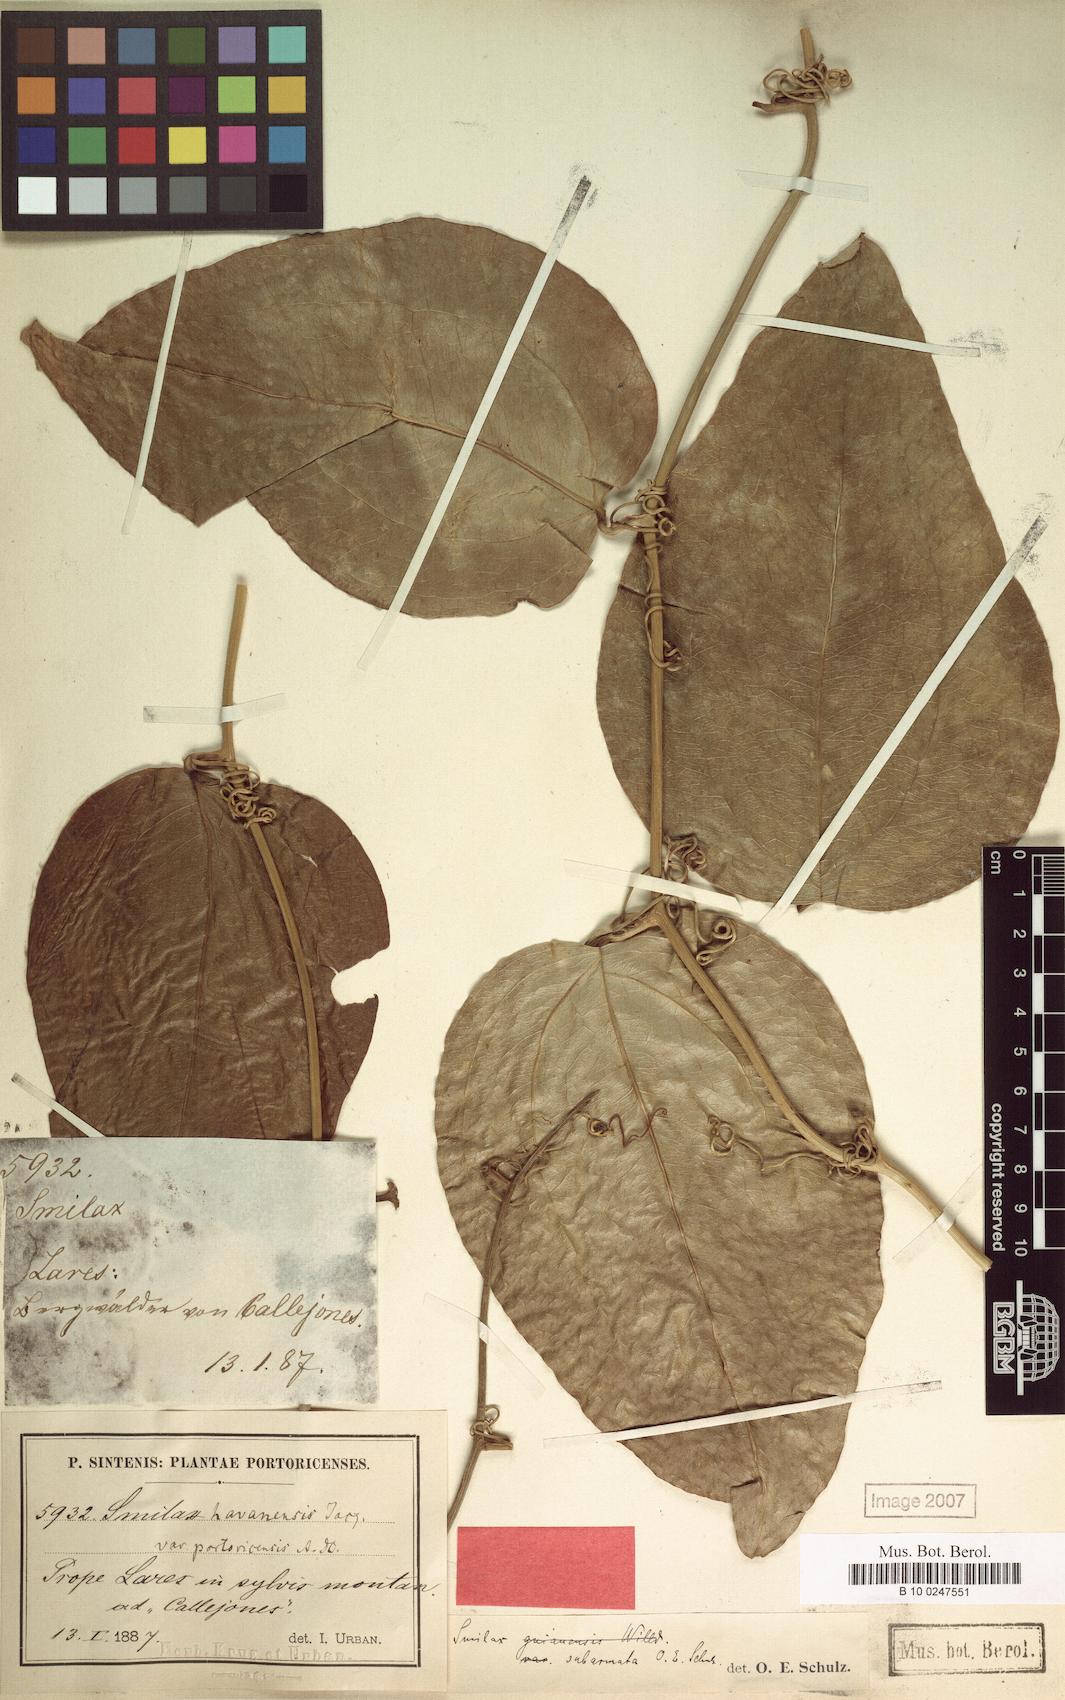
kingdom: Plantae
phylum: Tracheophyta
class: Liliopsida
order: Liliales
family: Smilacaceae
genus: Smilax
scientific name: Smilax guianensis
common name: Basket hoop
